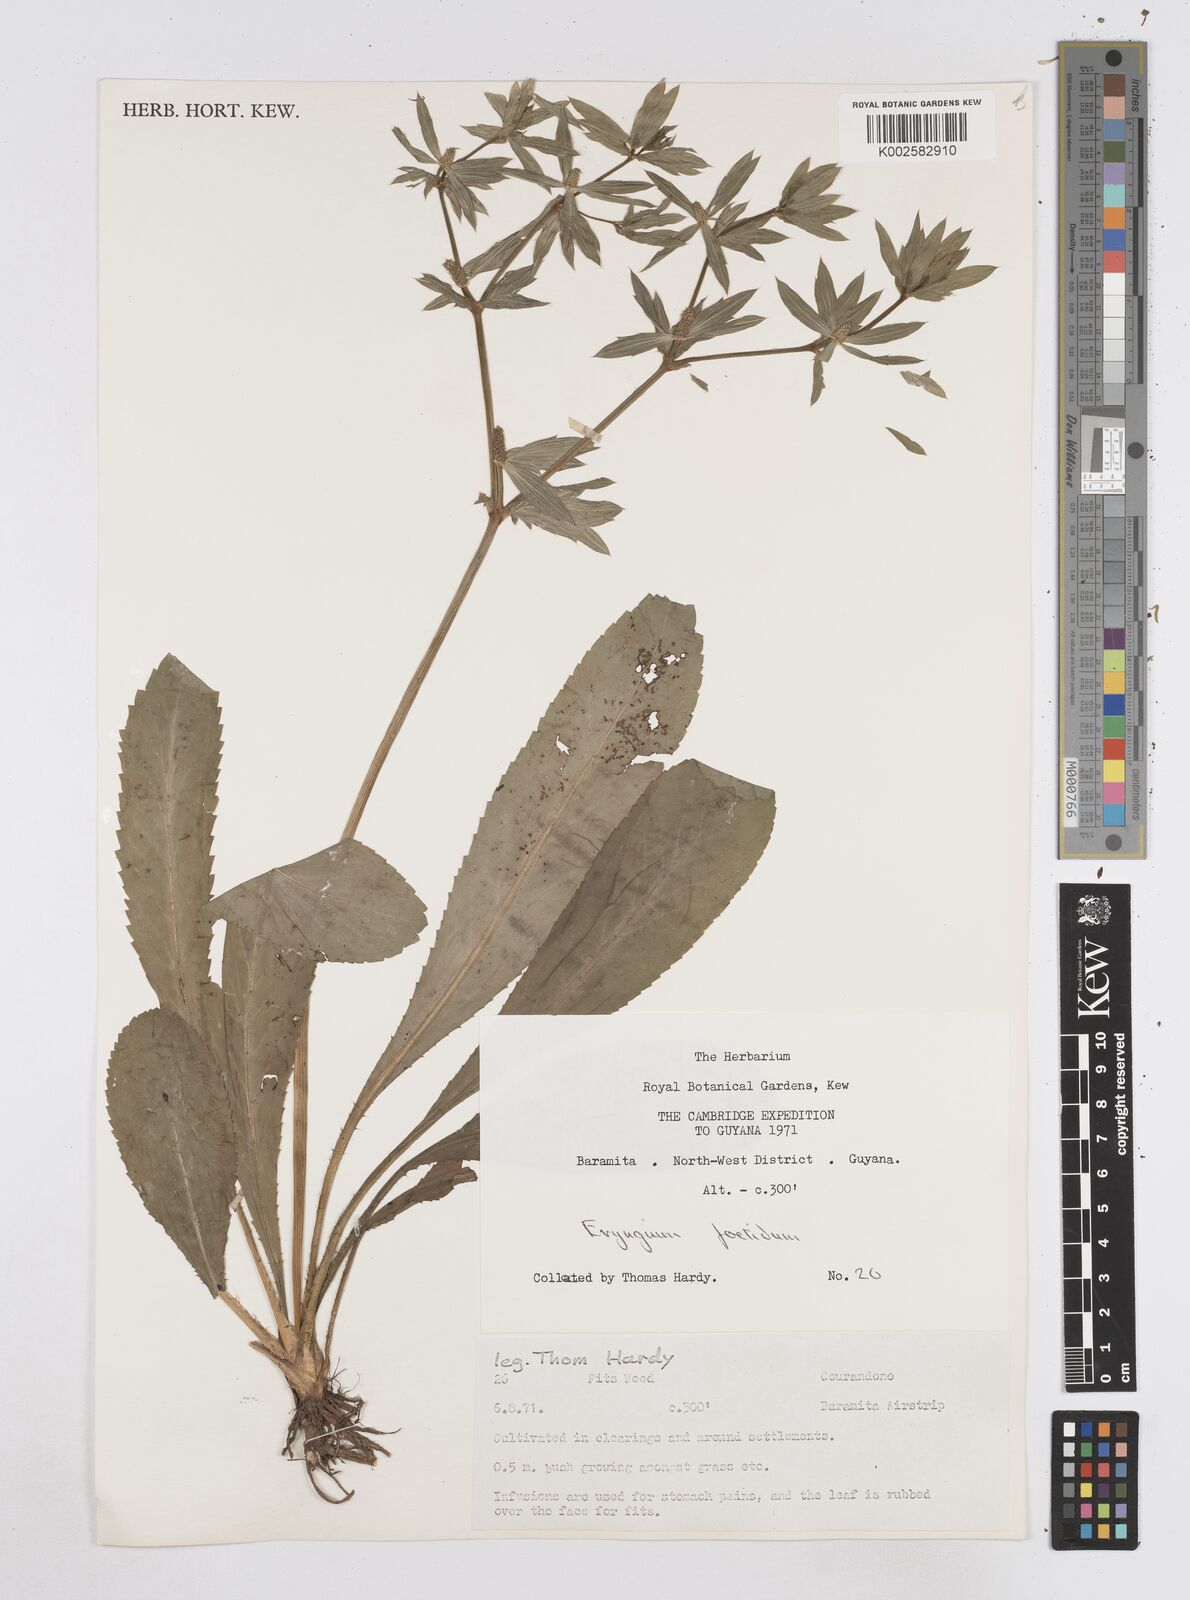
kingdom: Plantae
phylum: Tracheophyta
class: Magnoliopsida
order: Apiales
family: Apiaceae
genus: Eryngium
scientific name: Eryngium foetidum
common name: Fitweed
